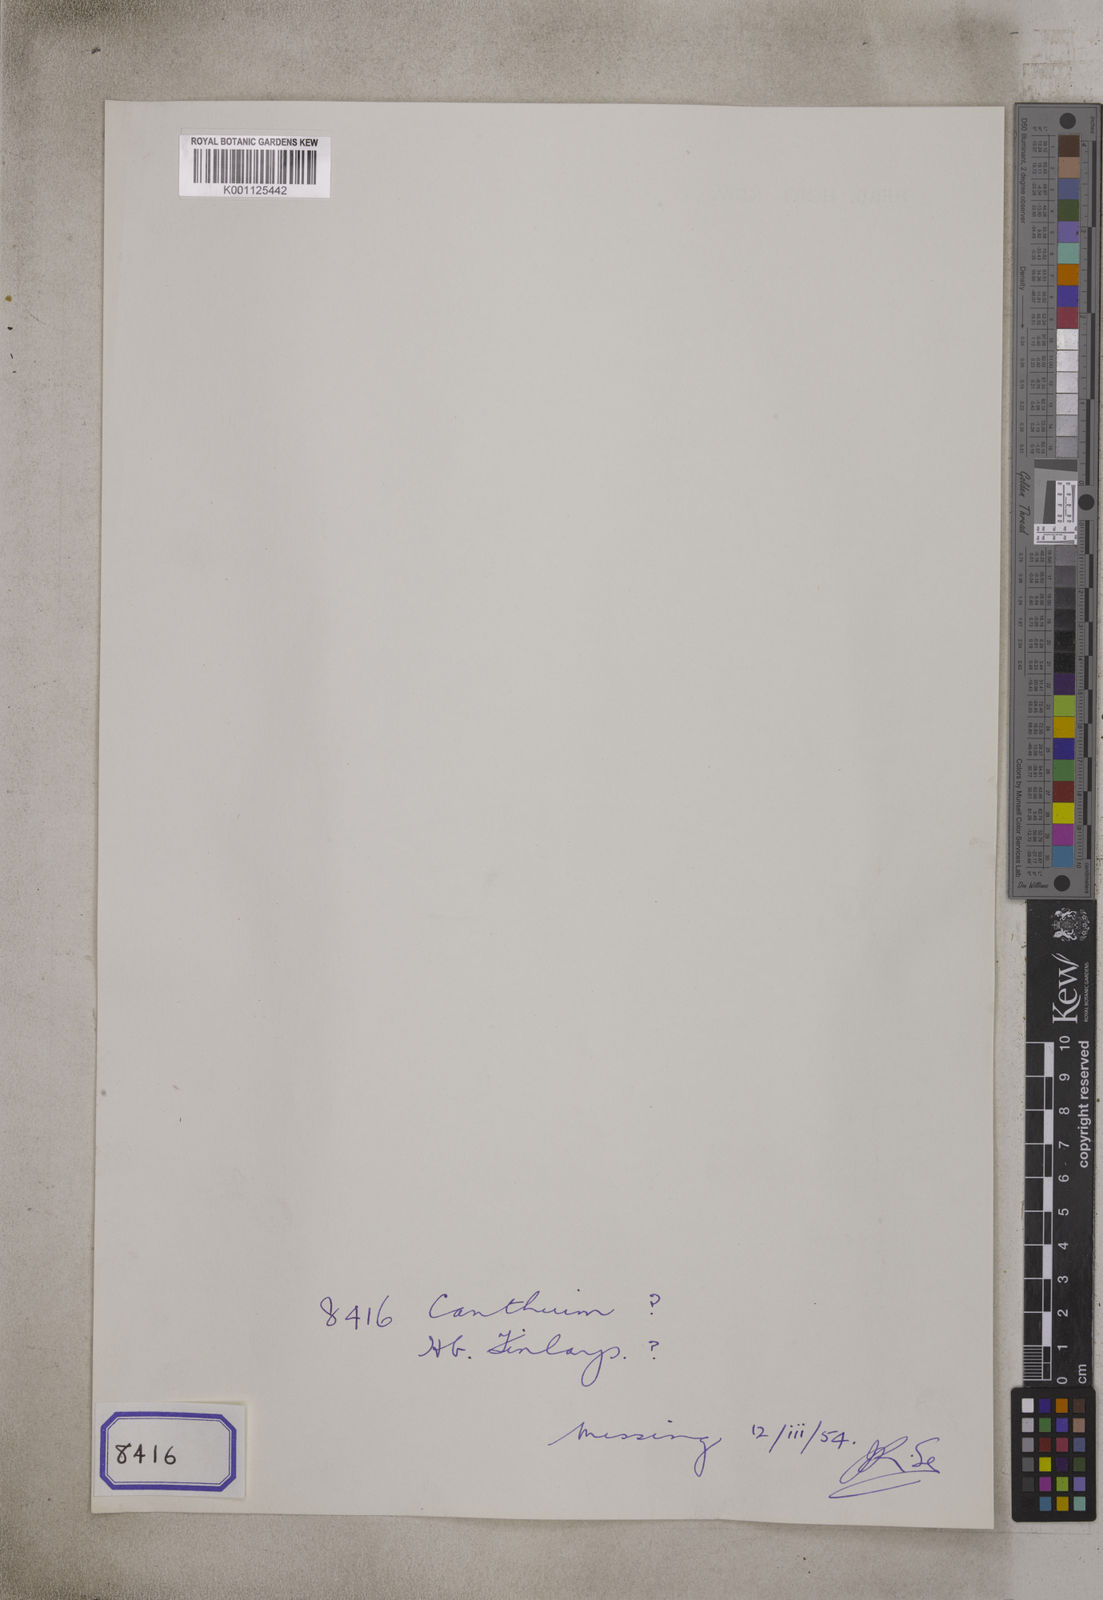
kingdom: Plantae
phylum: Tracheophyta
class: Magnoliopsida
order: Gentianales
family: Rubiaceae
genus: Canthium
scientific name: Canthium
